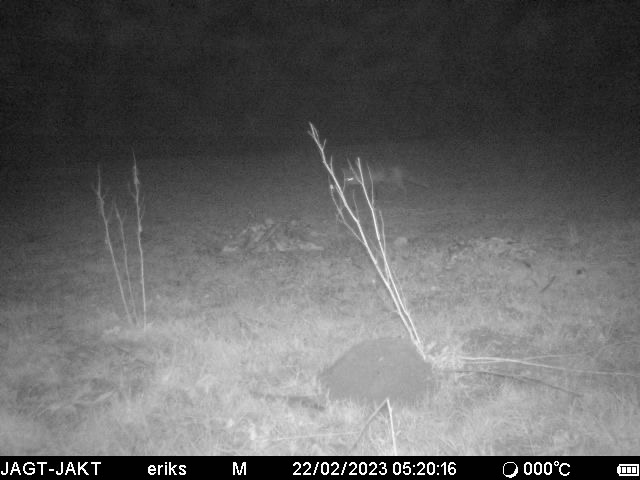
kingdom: Animalia
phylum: Chordata
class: Mammalia
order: Carnivora
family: Canidae
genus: Vulpes
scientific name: Vulpes vulpes
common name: Ræv
